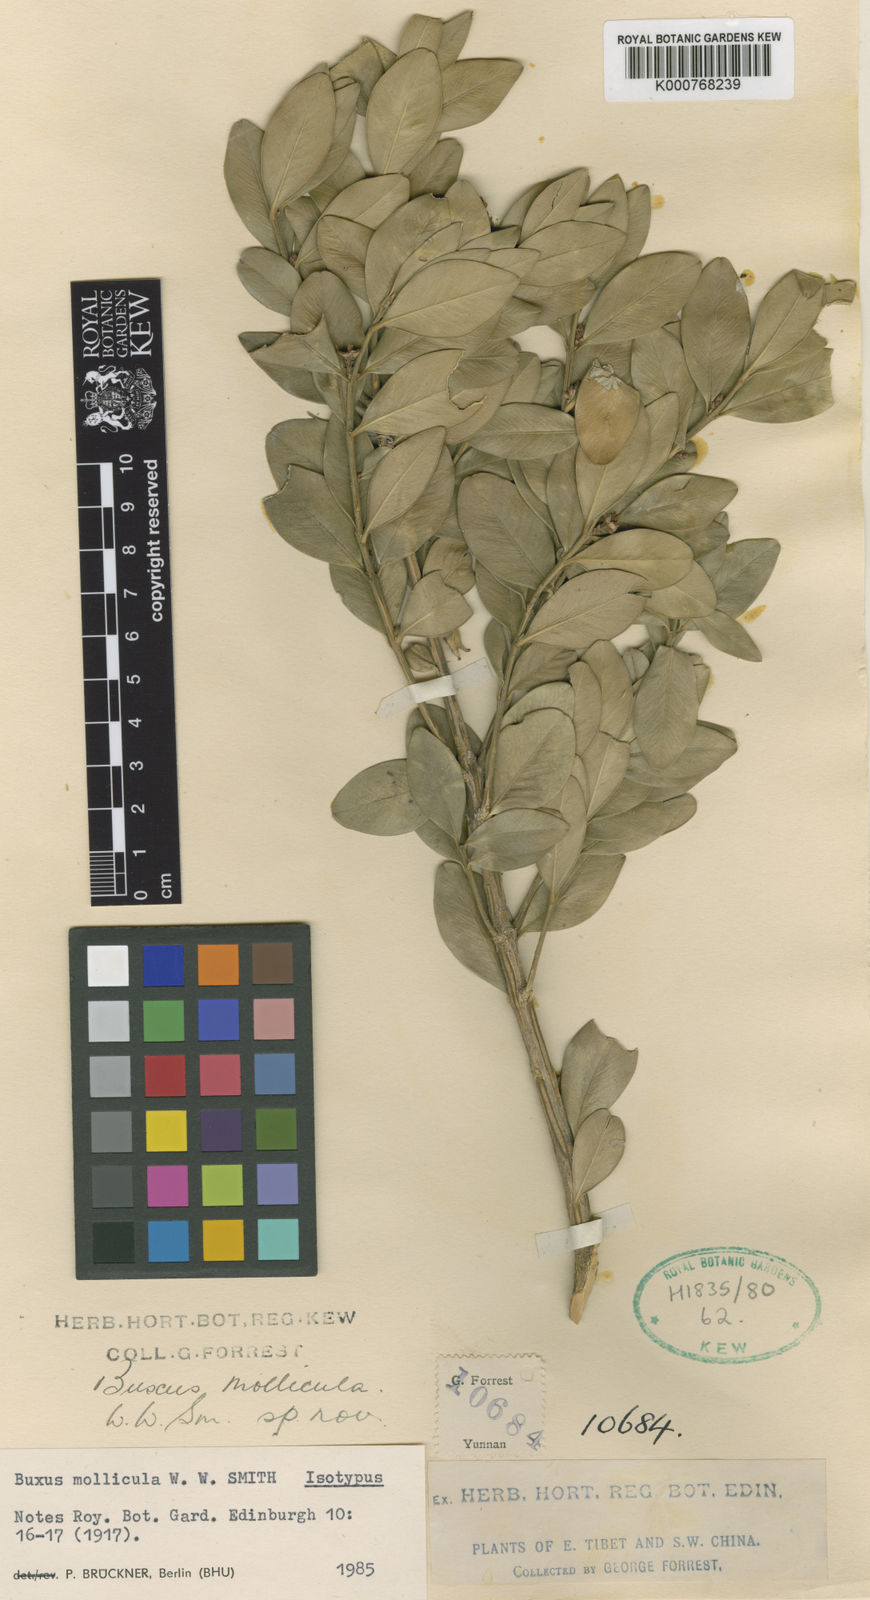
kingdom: Plantae
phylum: Tracheophyta
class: Magnoliopsida
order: Buxales
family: Buxaceae
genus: Buxus
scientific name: Buxus
